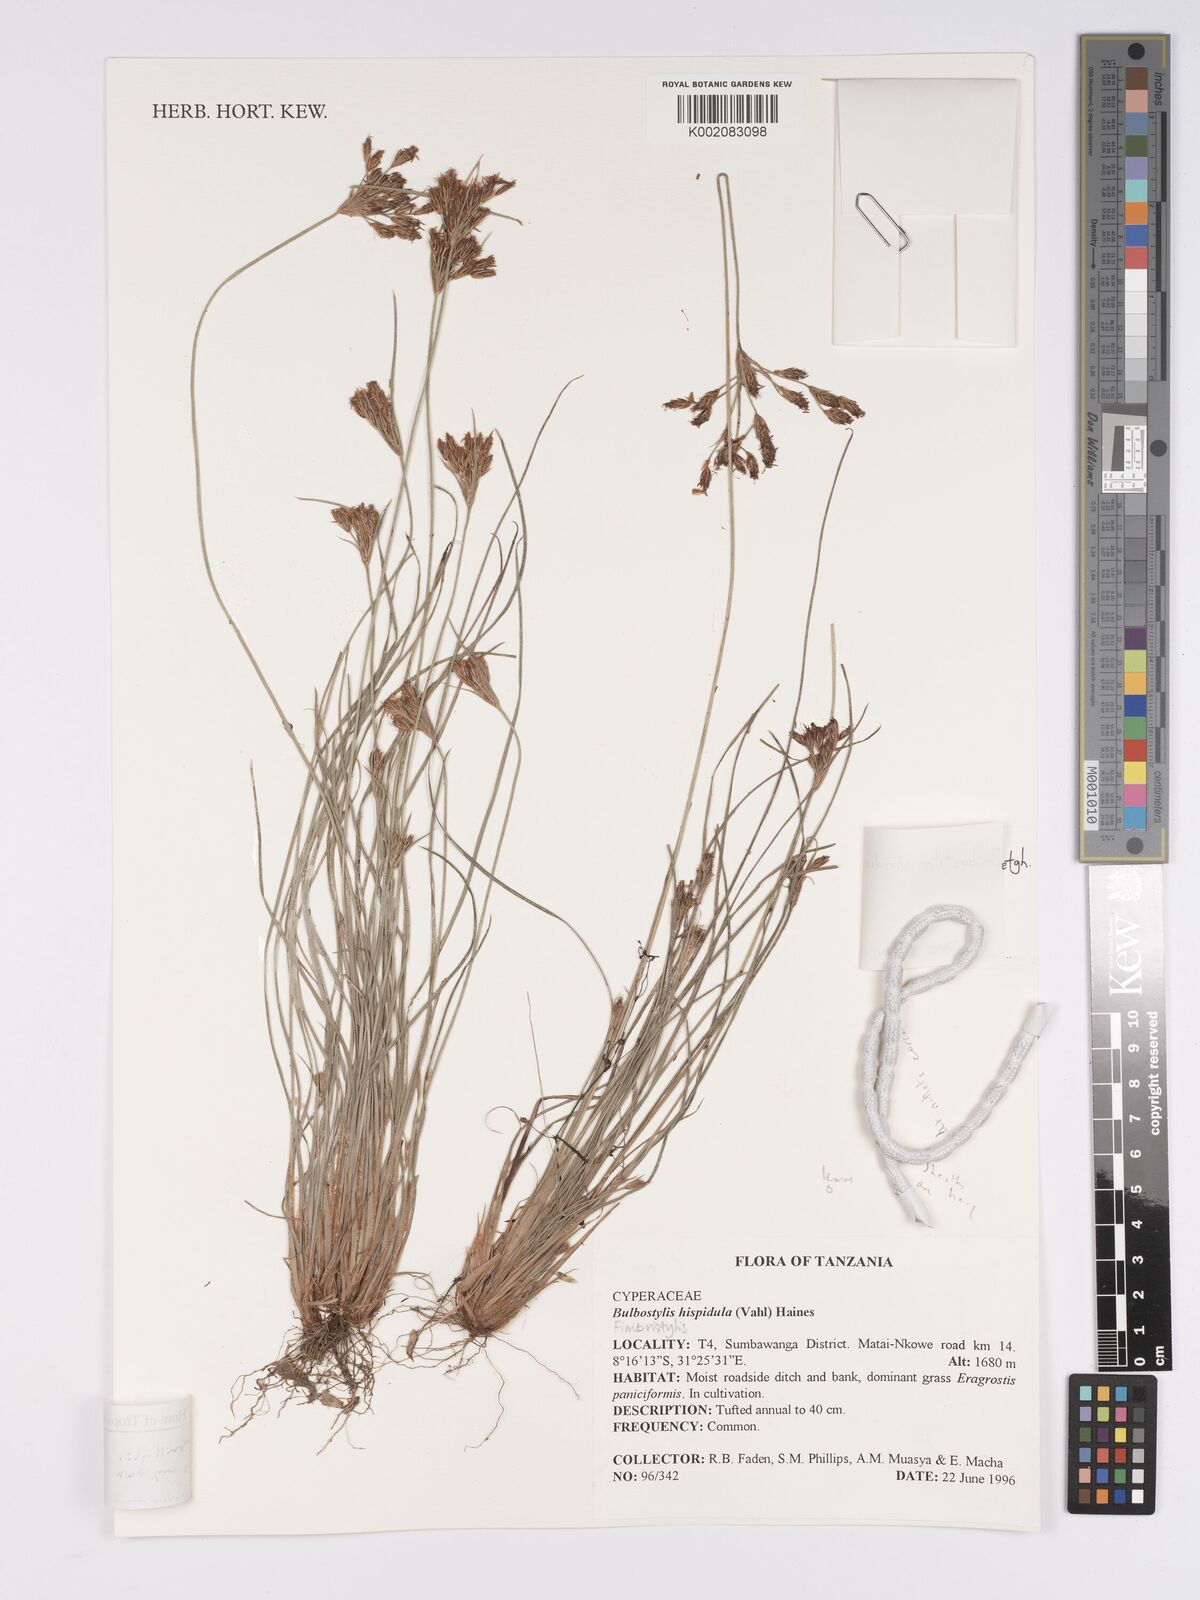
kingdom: Plantae
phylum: Tracheophyta
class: Liliopsida
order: Poales
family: Cyperaceae
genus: Bulbostylis
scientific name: Bulbostylis viridecarinata
